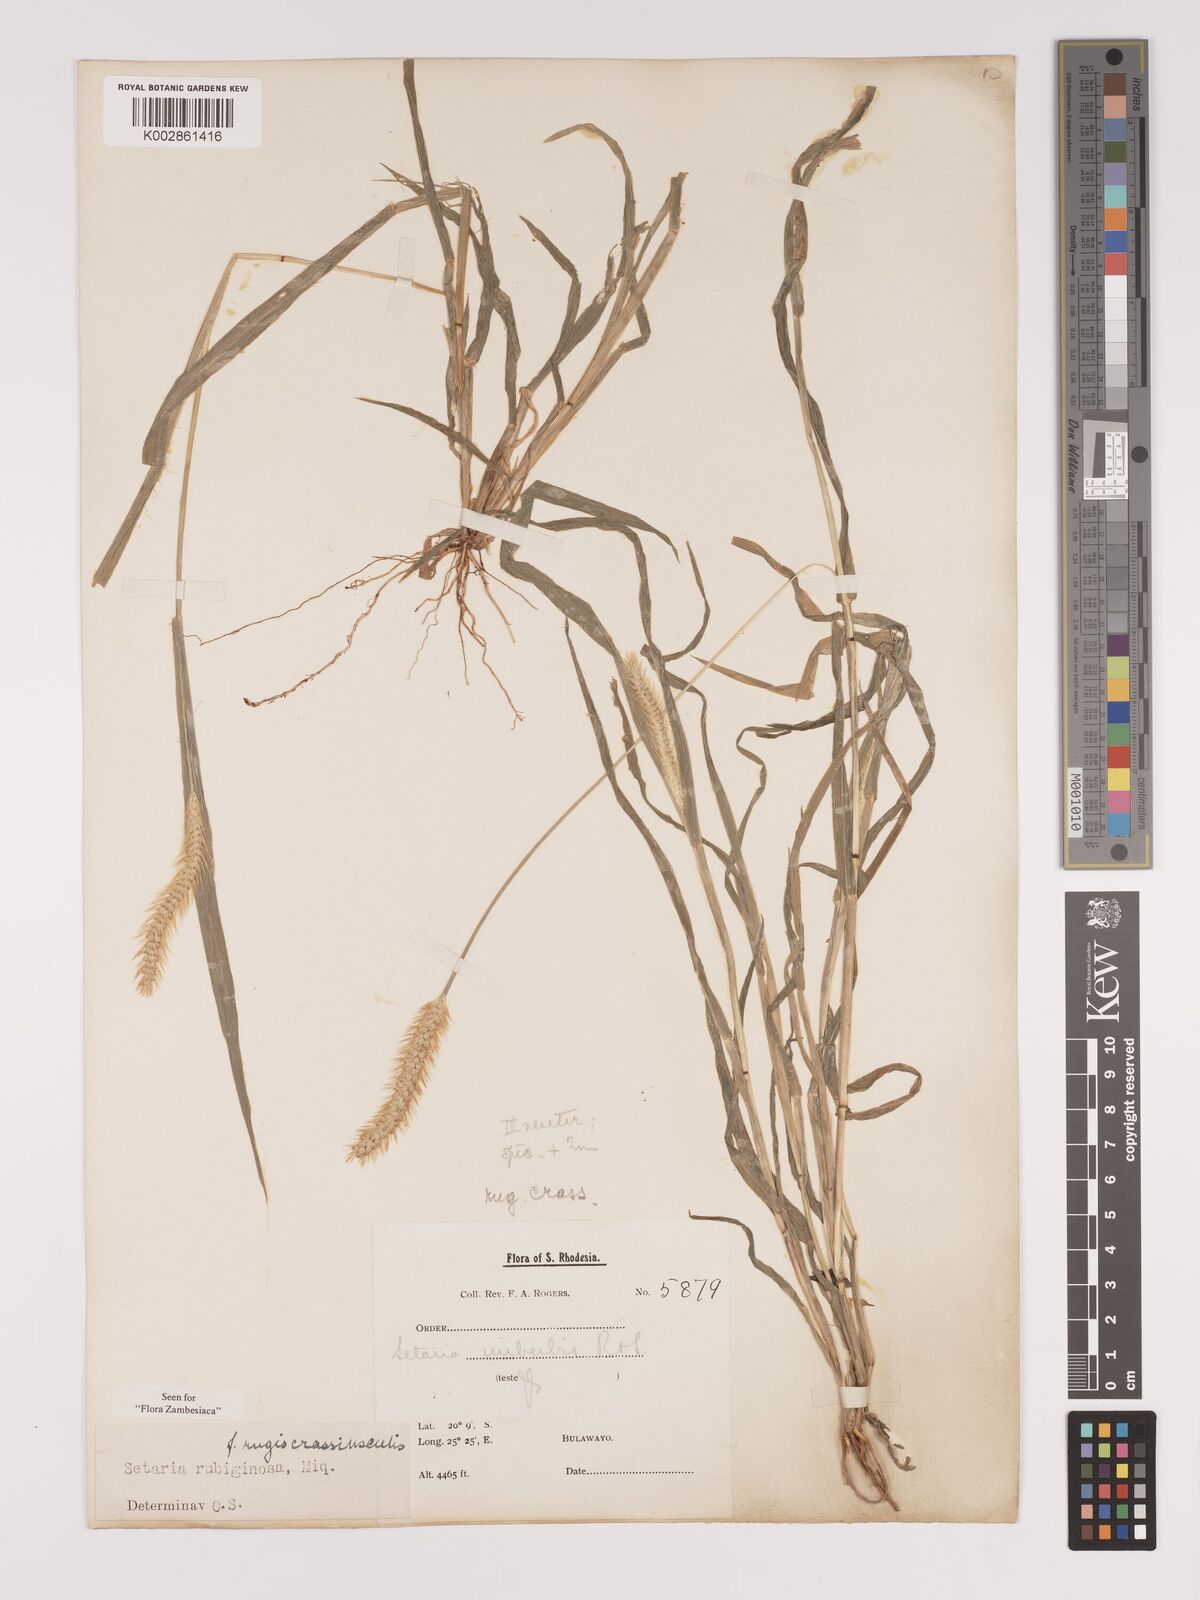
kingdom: Plantae
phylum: Tracheophyta
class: Liliopsida
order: Poales
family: Poaceae
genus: Setaria
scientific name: Setaria pumila
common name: Yellow bristle-grass
